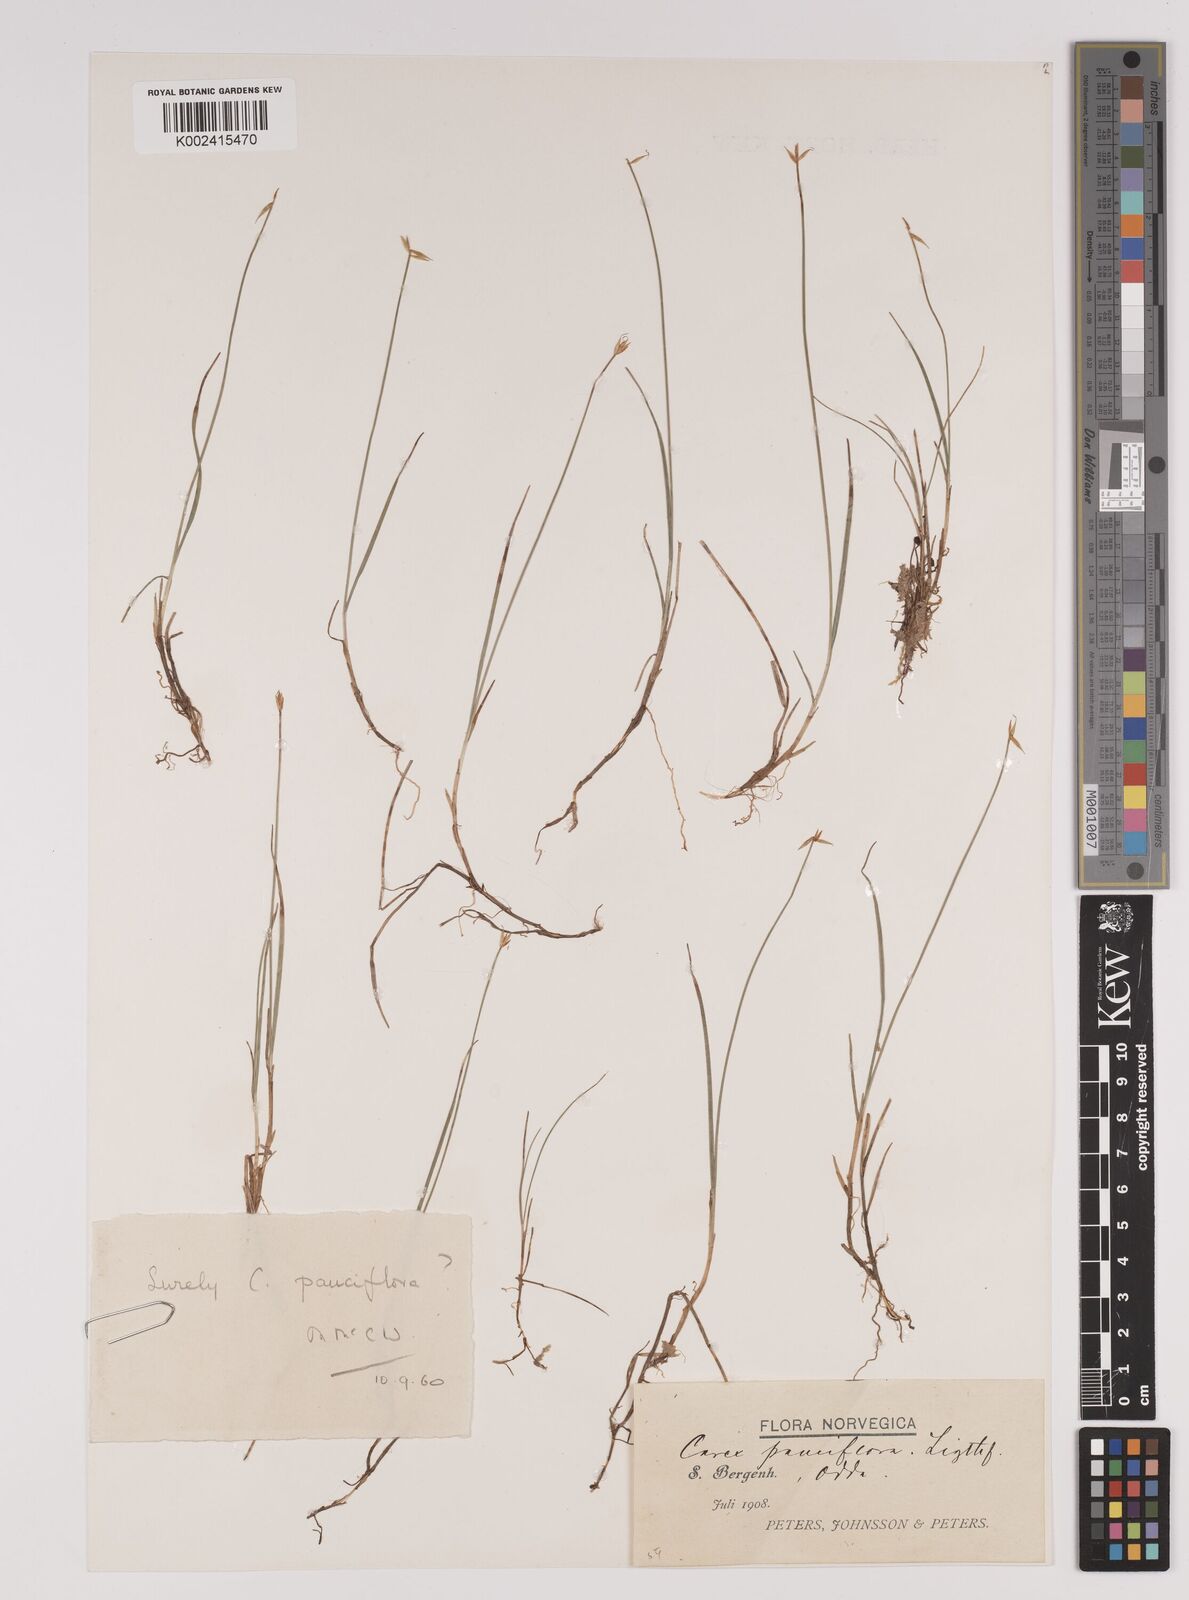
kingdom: Plantae
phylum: Tracheophyta
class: Liliopsida
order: Poales
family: Cyperaceae
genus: Carex
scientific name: Carex pulicaris
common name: Flea sedge
